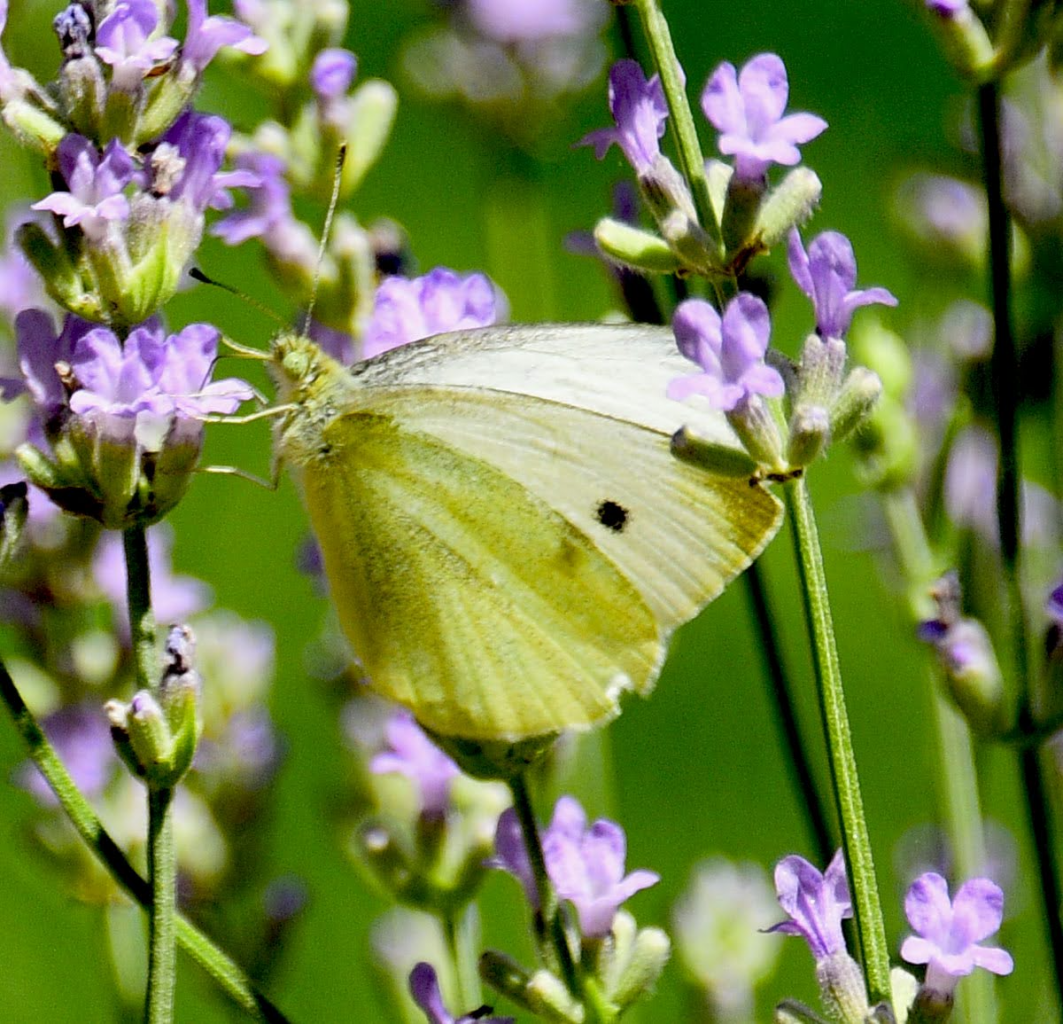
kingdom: Animalia
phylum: Arthropoda
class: Insecta
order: Lepidoptera
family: Pieridae
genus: Pieris
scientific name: Pieris rapae
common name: Cabbage White
